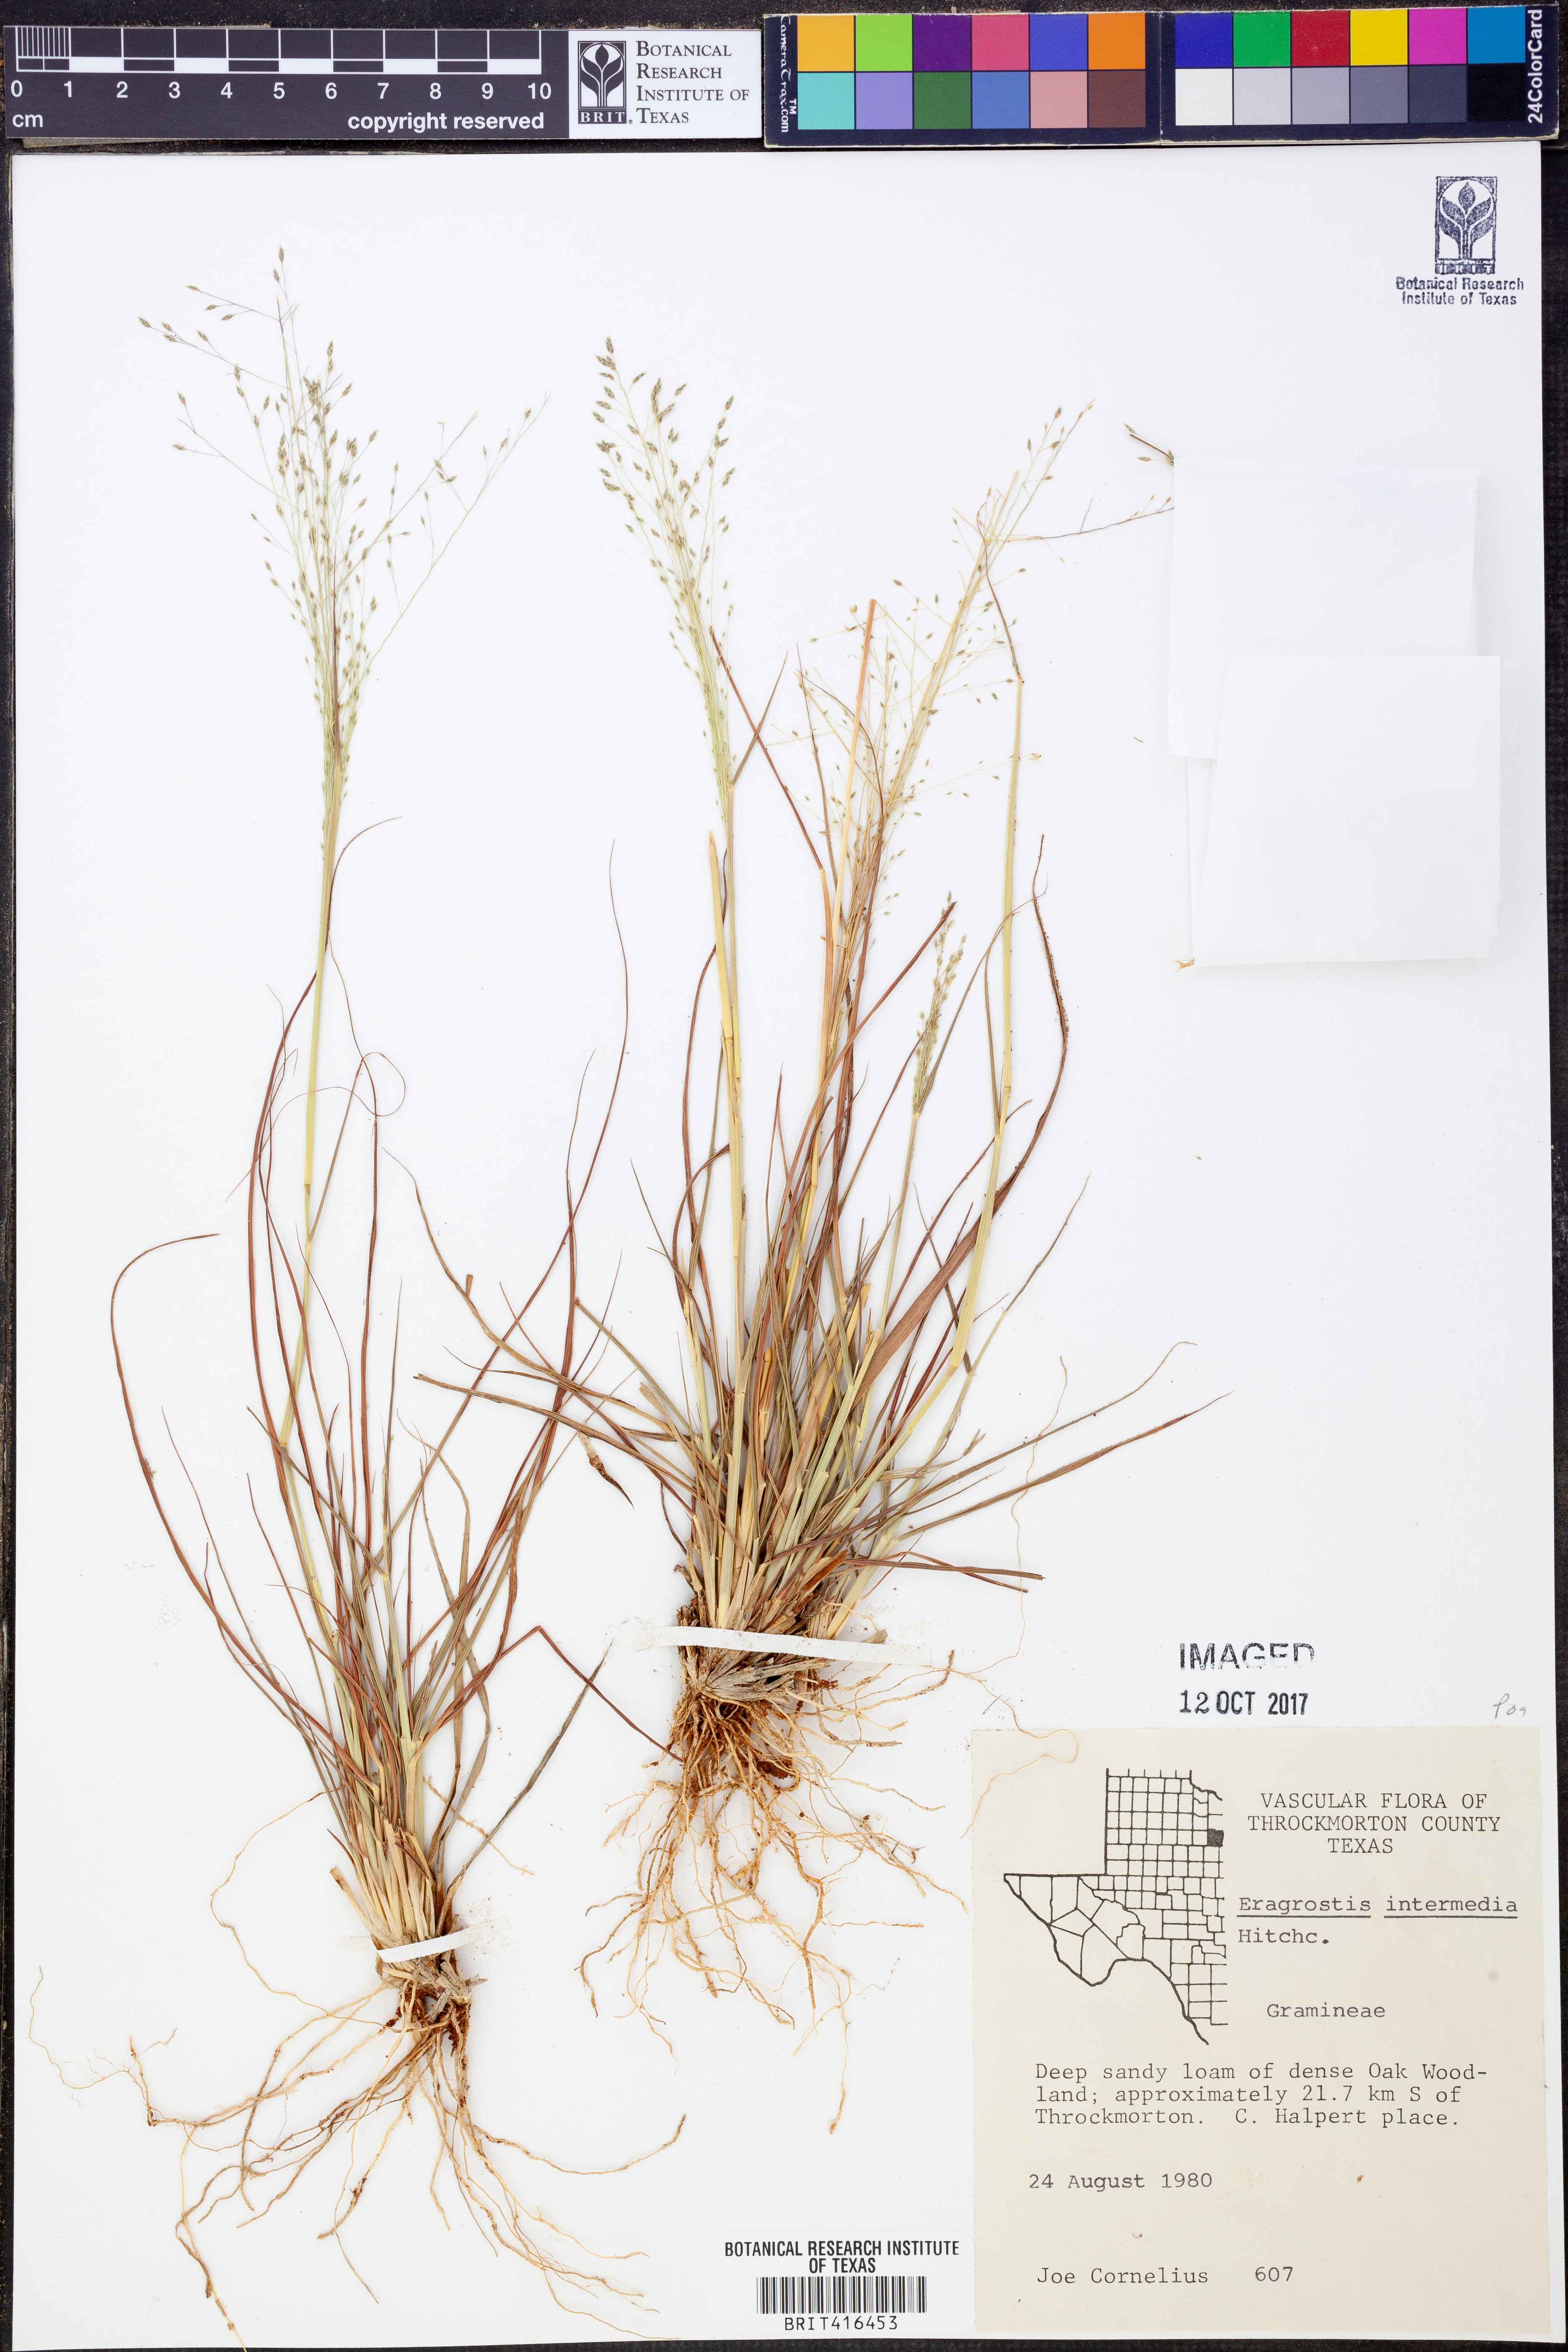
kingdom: Plantae
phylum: Tracheophyta
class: Liliopsida
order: Poales
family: Poaceae
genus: Eragrostis
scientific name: Eragrostis intermedia
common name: Plains love grass
